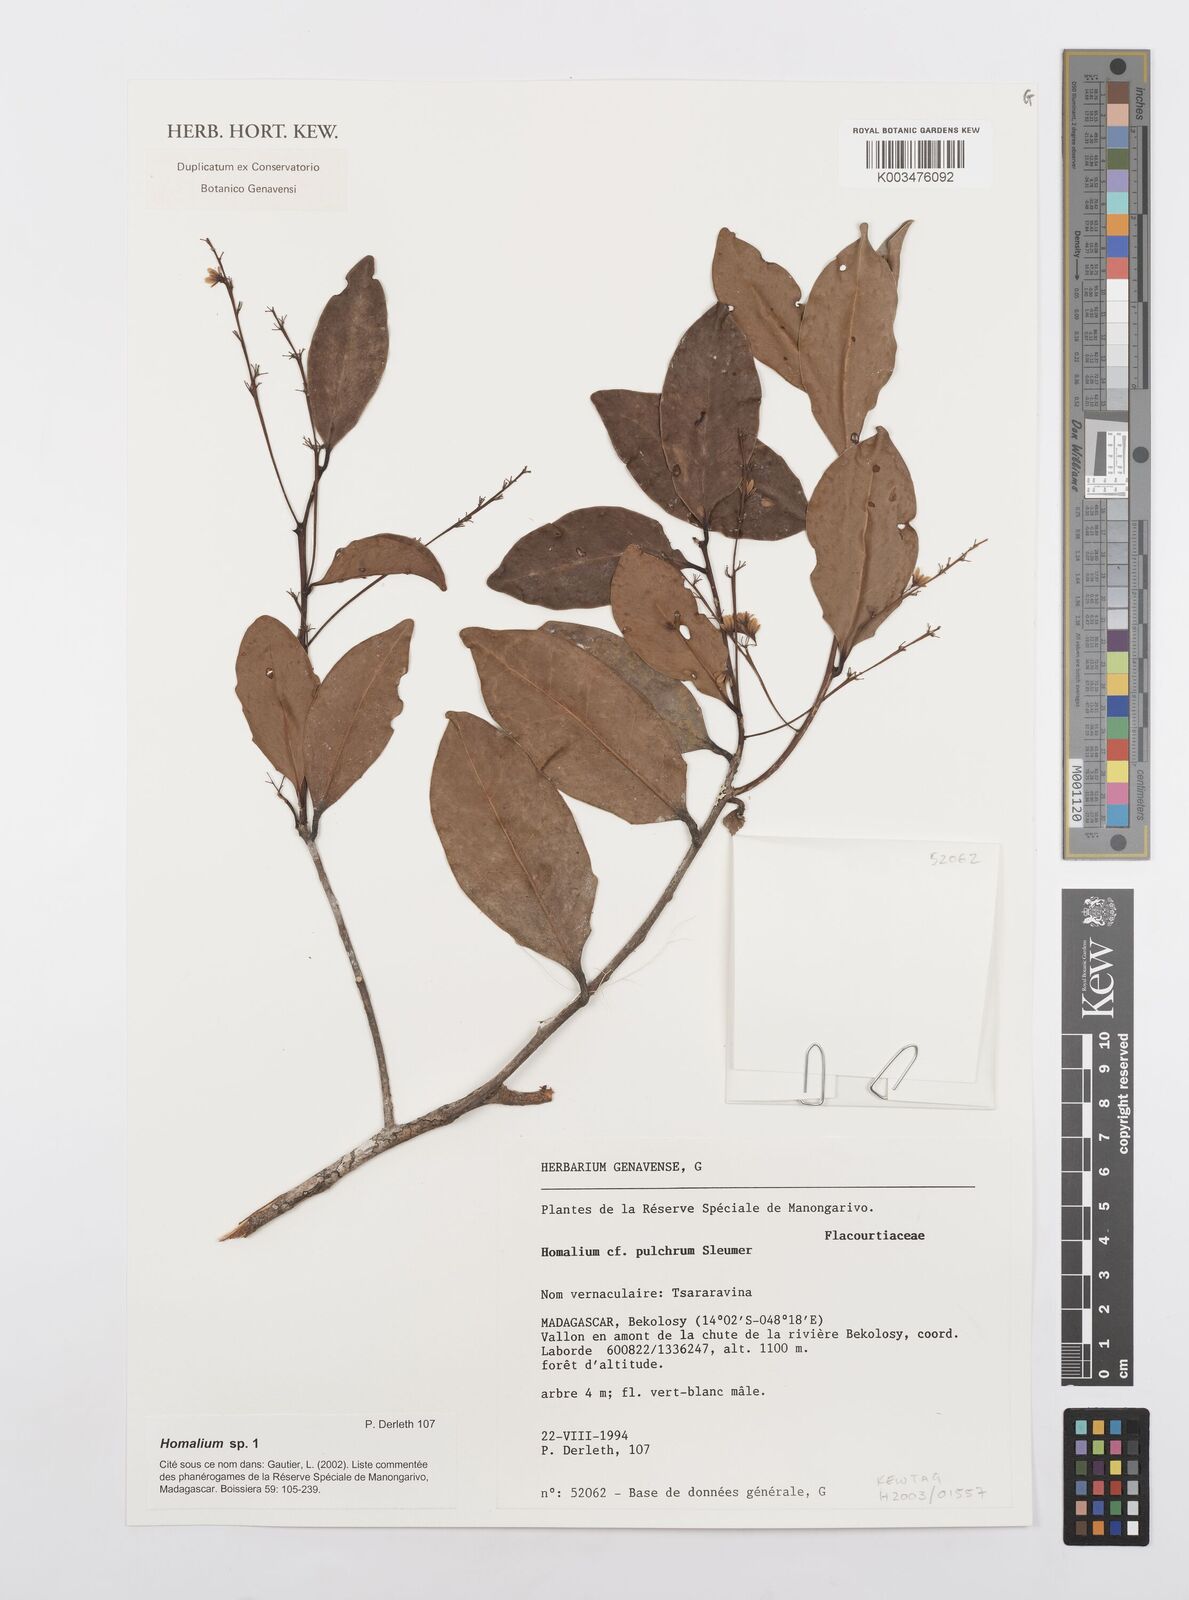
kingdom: Plantae
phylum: Tracheophyta
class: Magnoliopsida
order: Malpighiales
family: Salicaceae
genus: Homalium
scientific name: Homalium pulchrum
